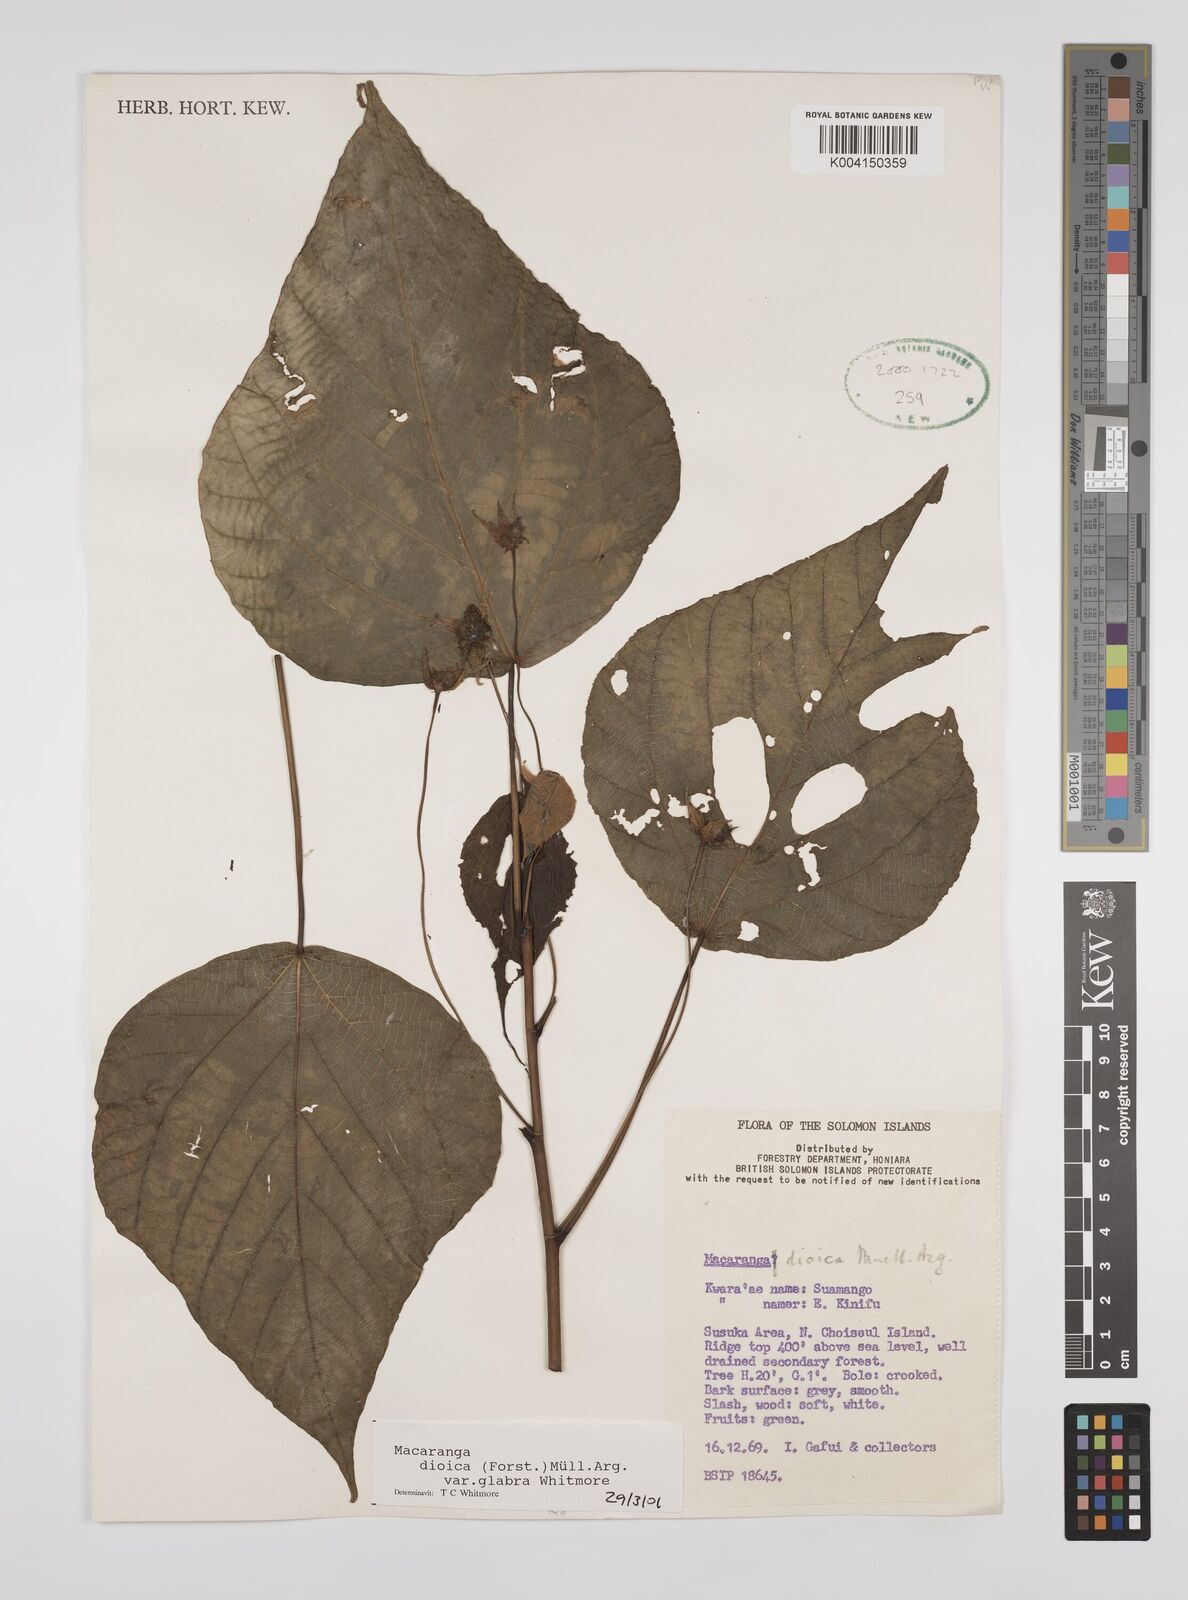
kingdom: Plantae
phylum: Tracheophyta
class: Magnoliopsida
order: Malpighiales
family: Euphorbiaceae
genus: Macaranga
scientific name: Macaranga dioica
